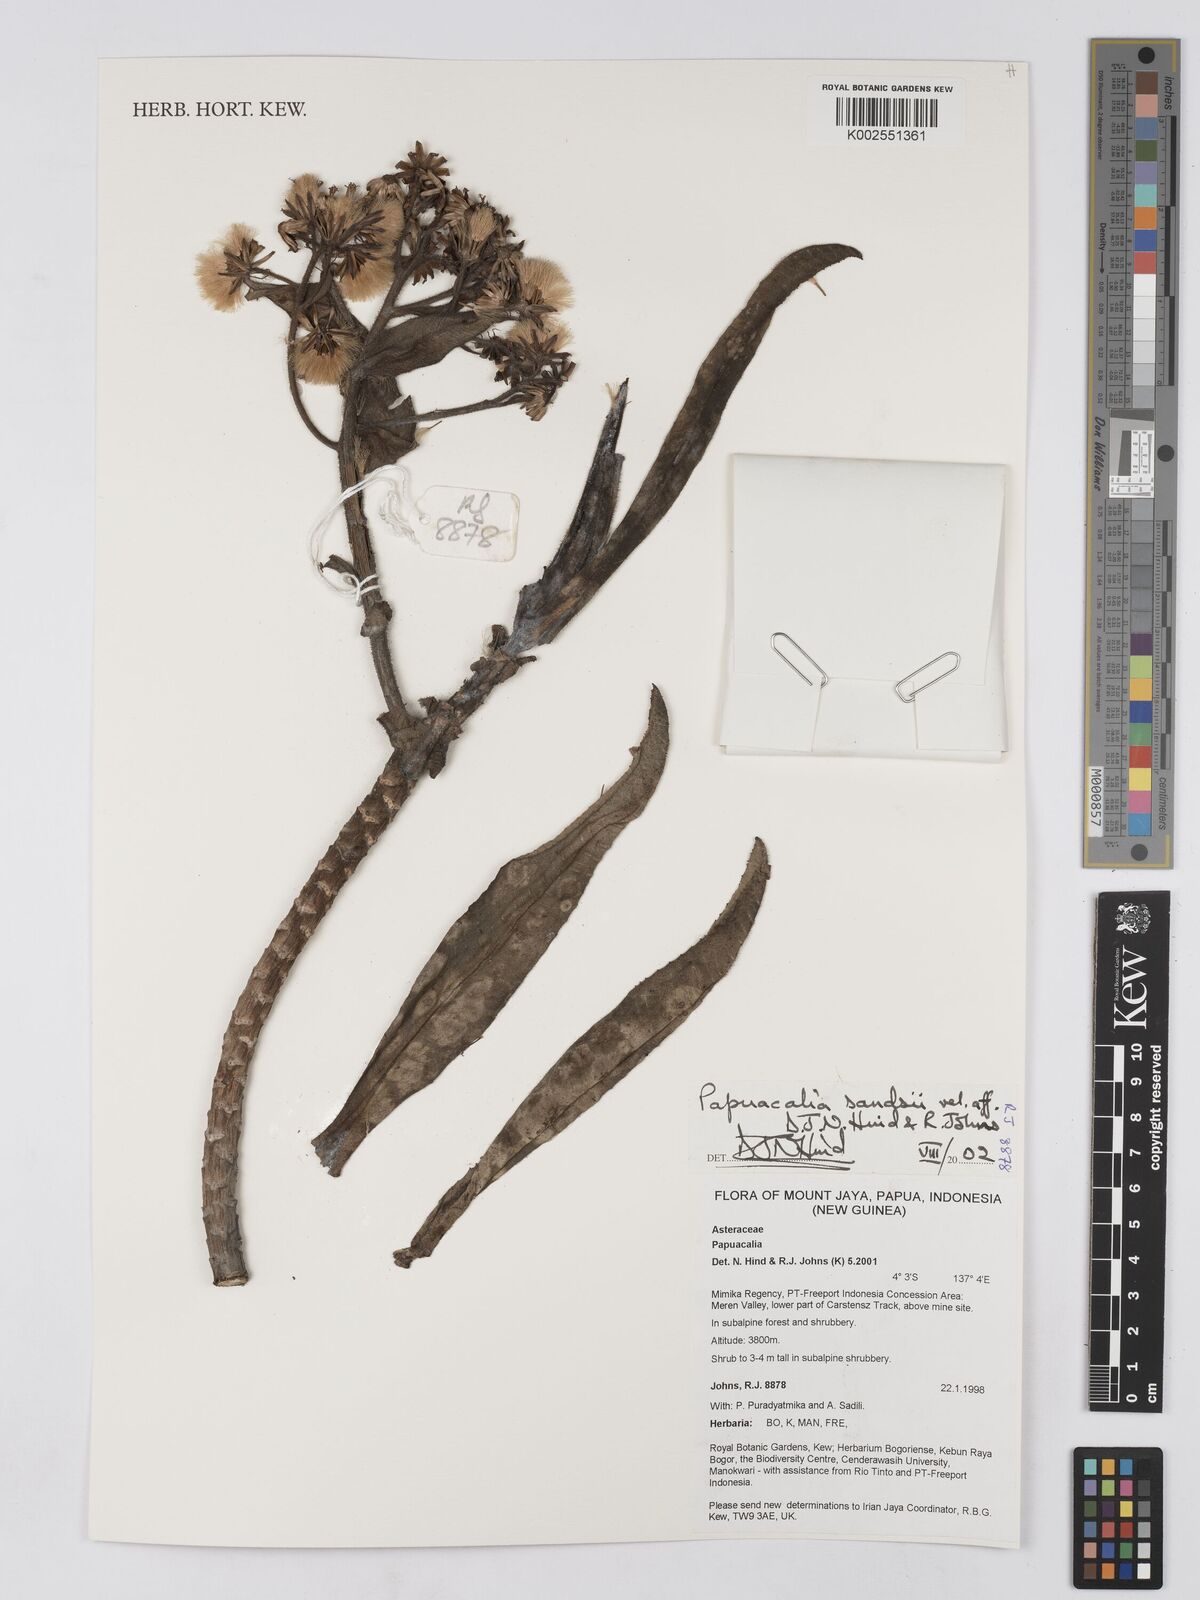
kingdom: Plantae
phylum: Tracheophyta
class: Magnoliopsida
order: Asterales
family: Asteraceae
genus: Papuacalia
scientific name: Papuacalia sandsii
